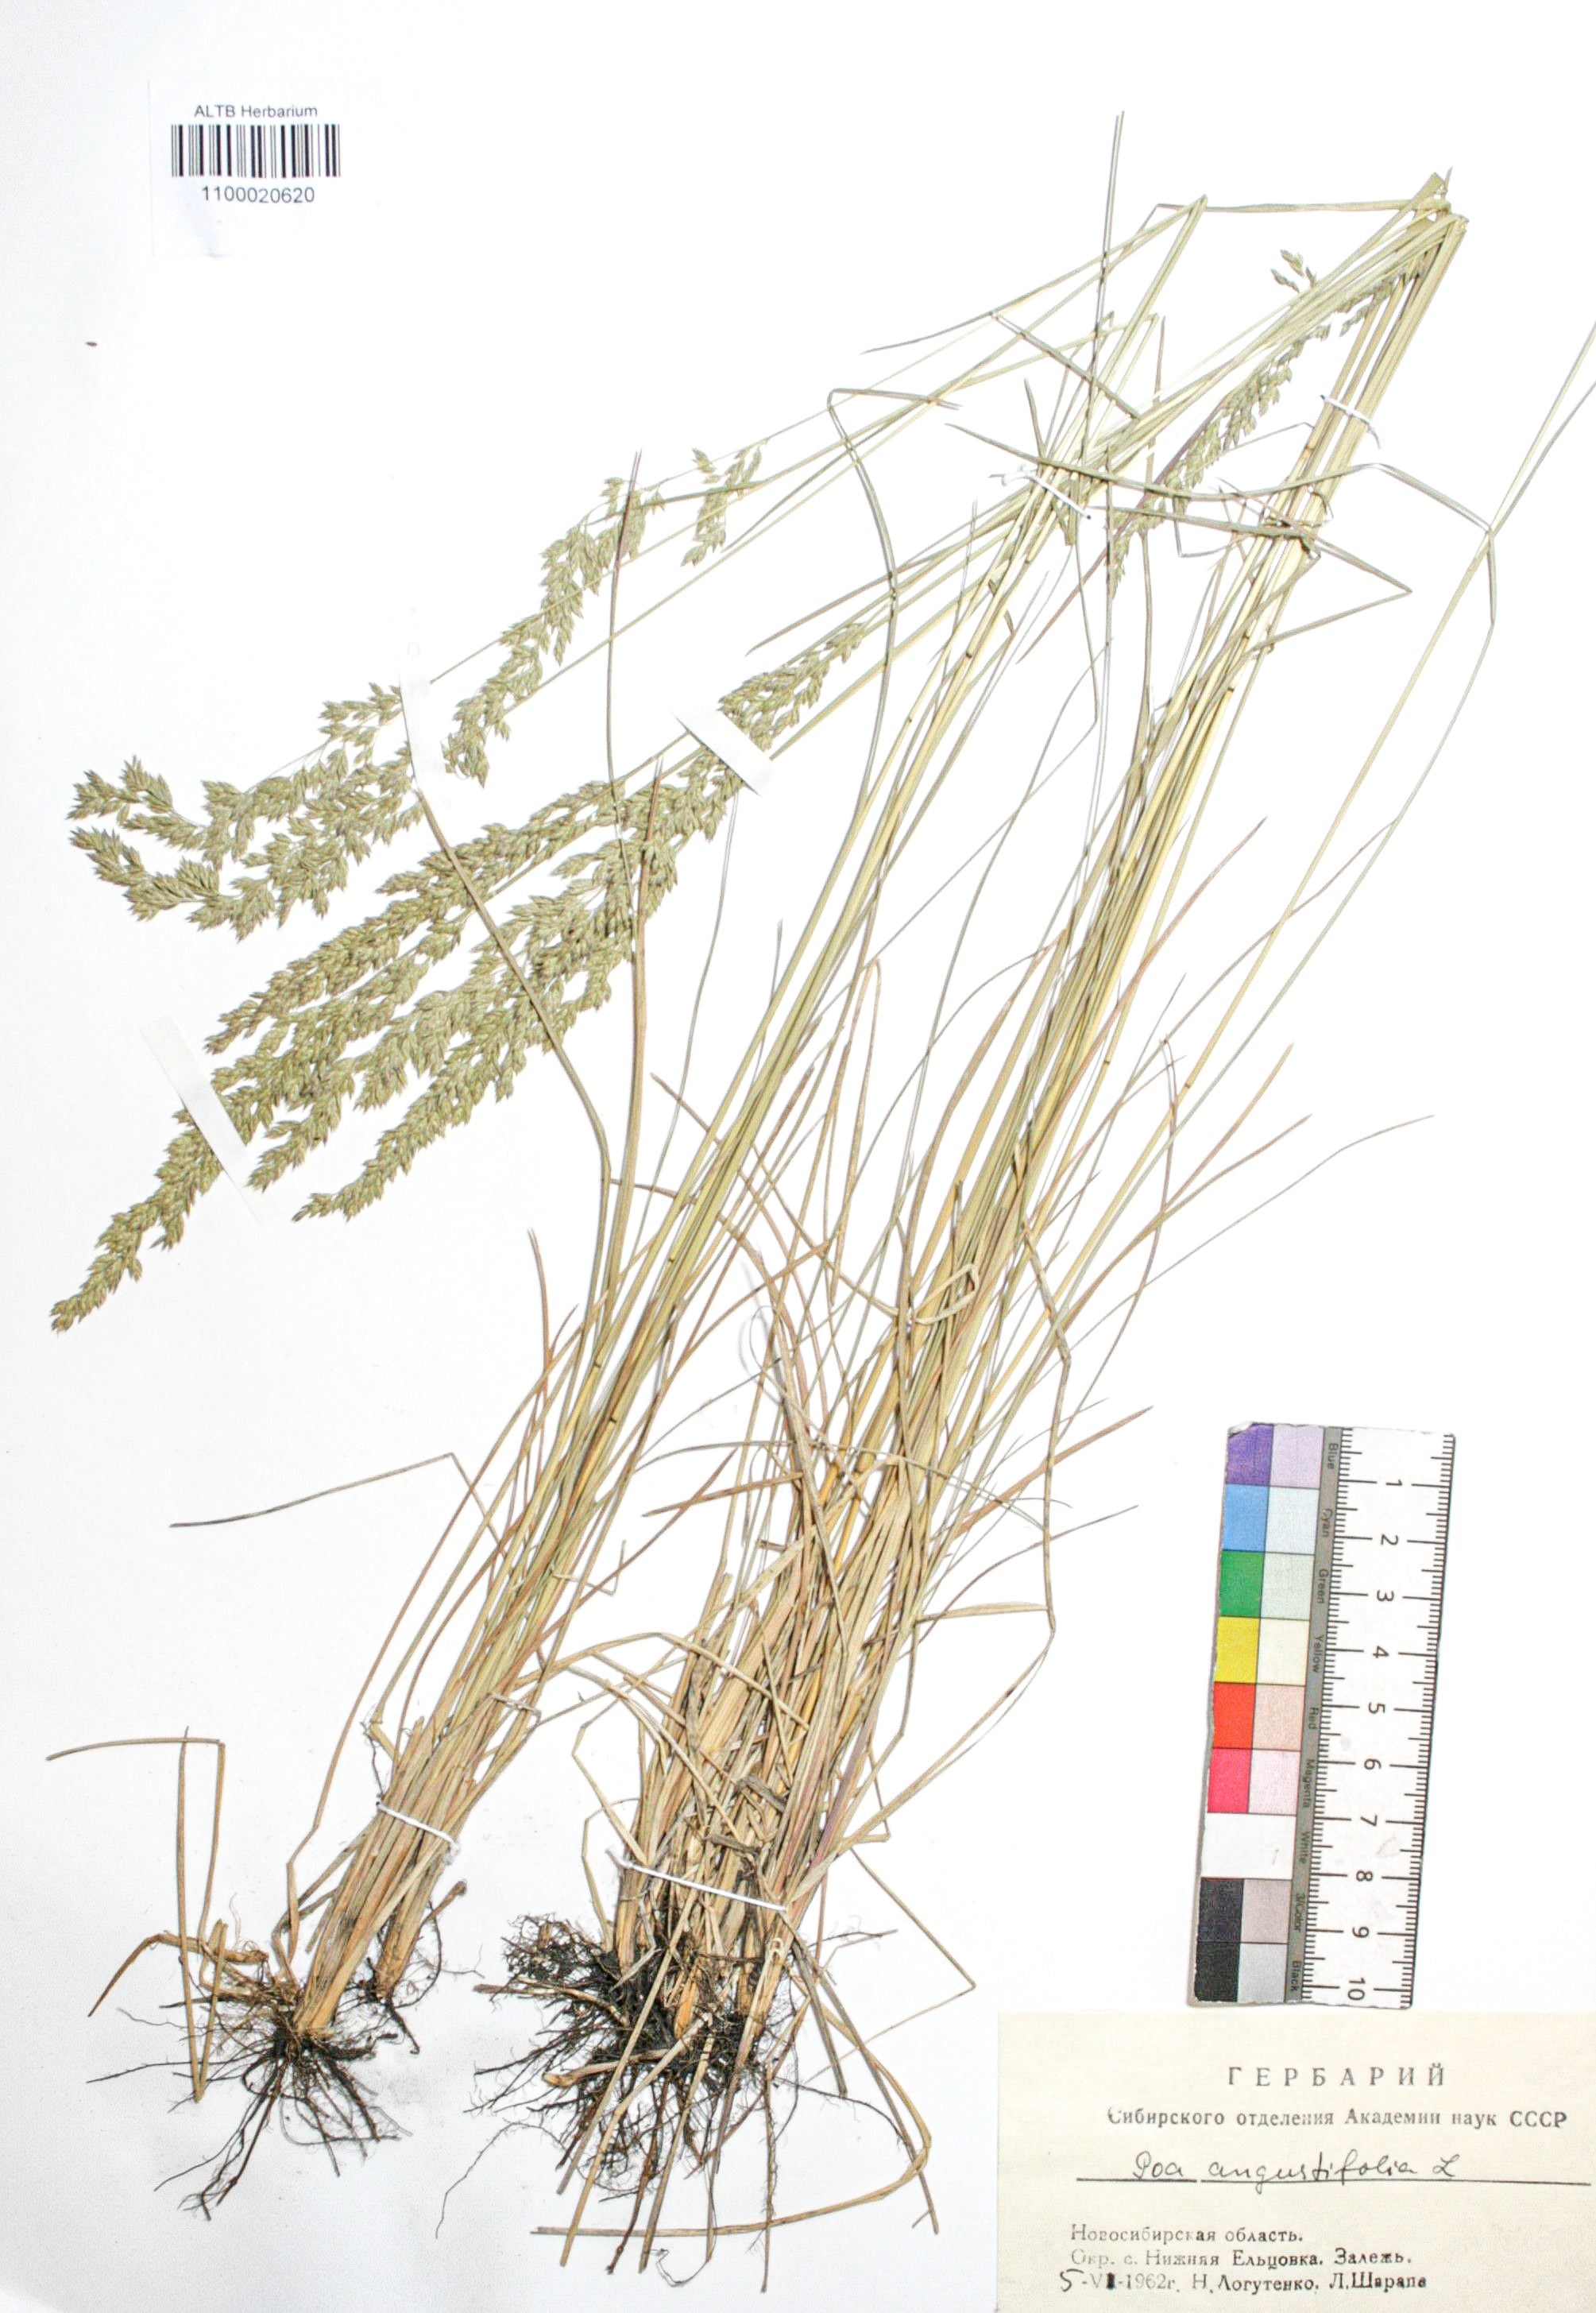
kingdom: Plantae
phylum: Tracheophyta
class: Liliopsida
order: Poales
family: Poaceae
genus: Poa
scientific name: Poa angustifolia
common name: Narrow-leaved meadow-grass
